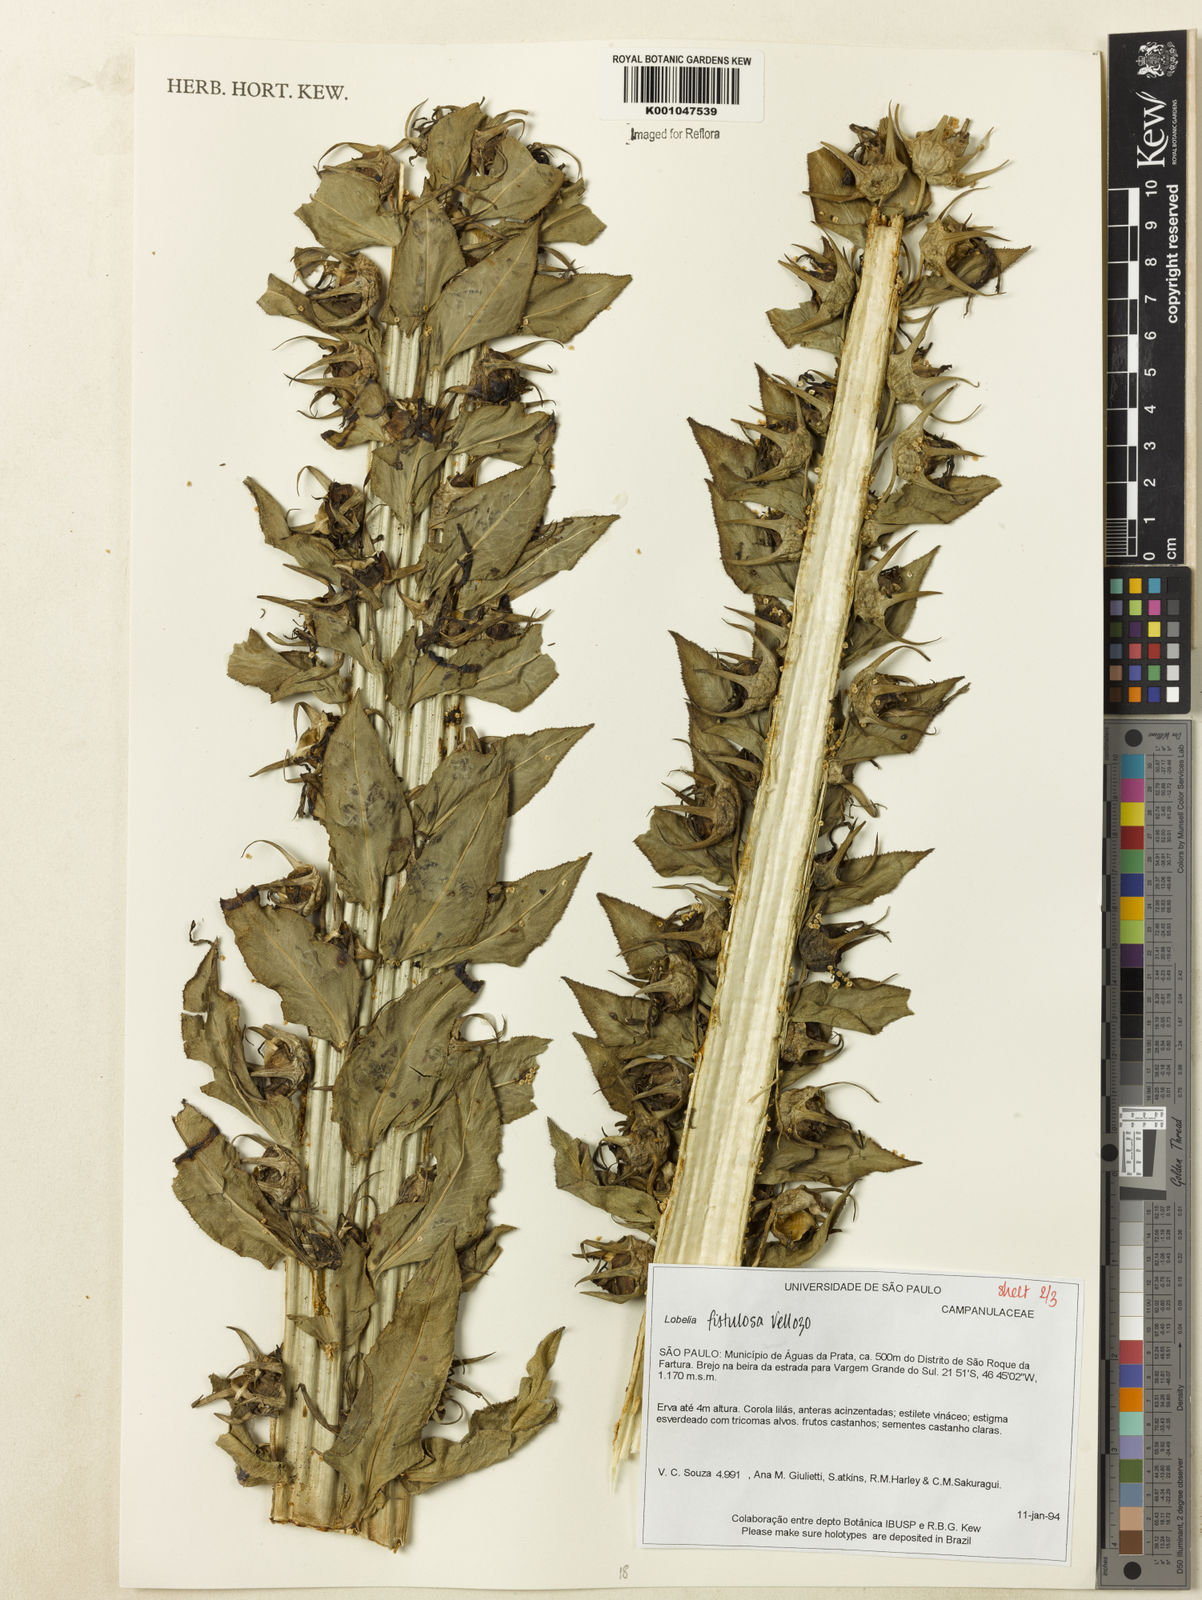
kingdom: Plantae
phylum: Tracheophyta
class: Magnoliopsida
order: Asterales
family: Campanulaceae
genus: Lobelia
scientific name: Lobelia fistulosa
